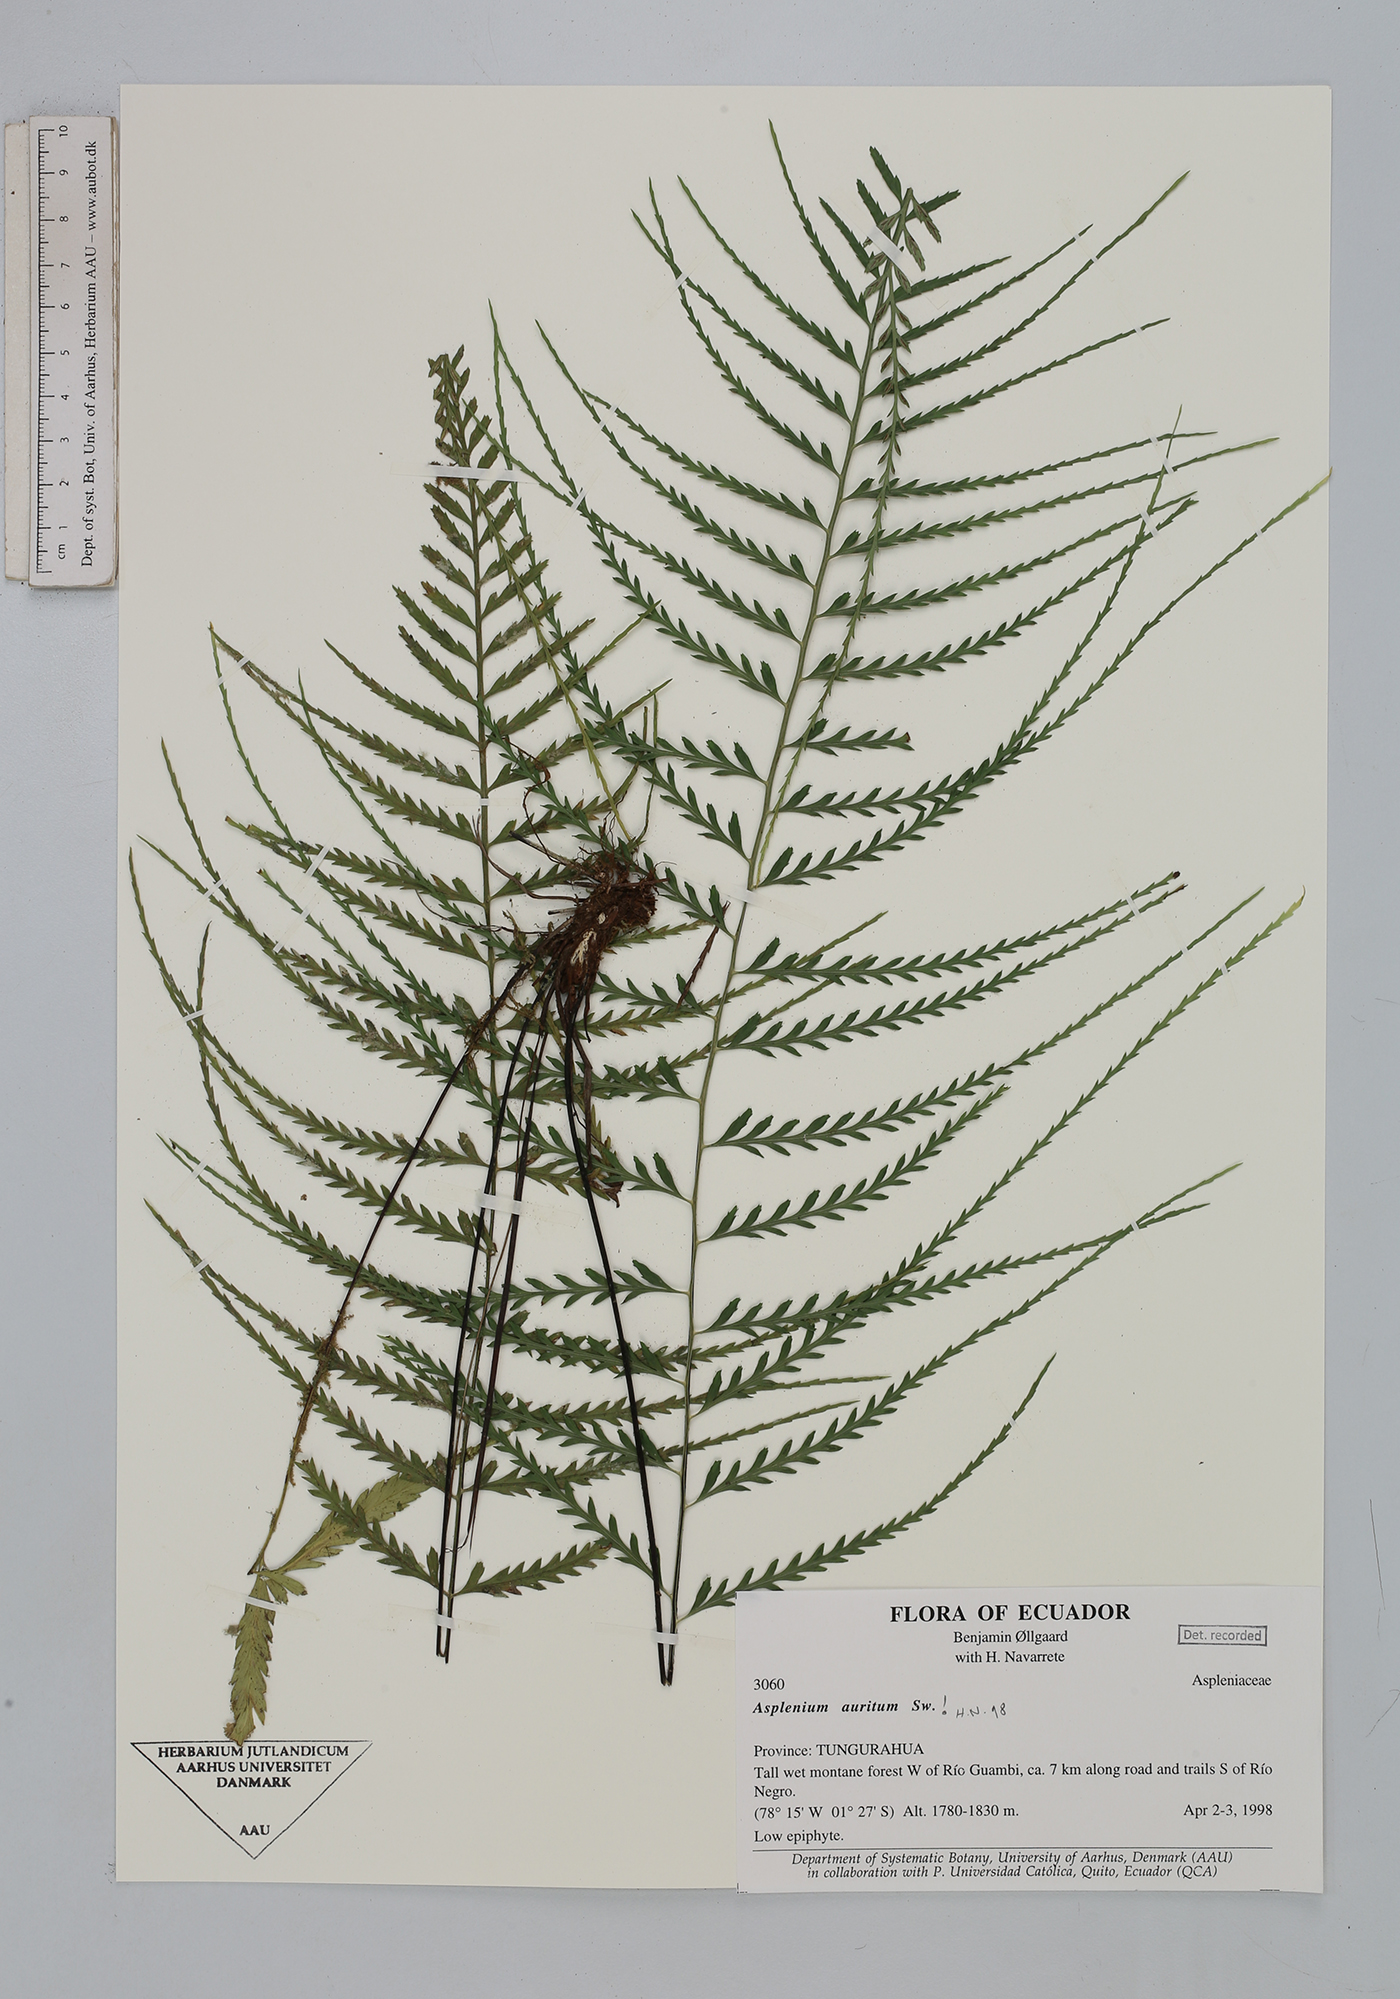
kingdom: Plantae
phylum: Tracheophyta
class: Polypodiopsida
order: Polypodiales
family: Aspleniaceae
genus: Asplenium
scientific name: Asplenium auritum
